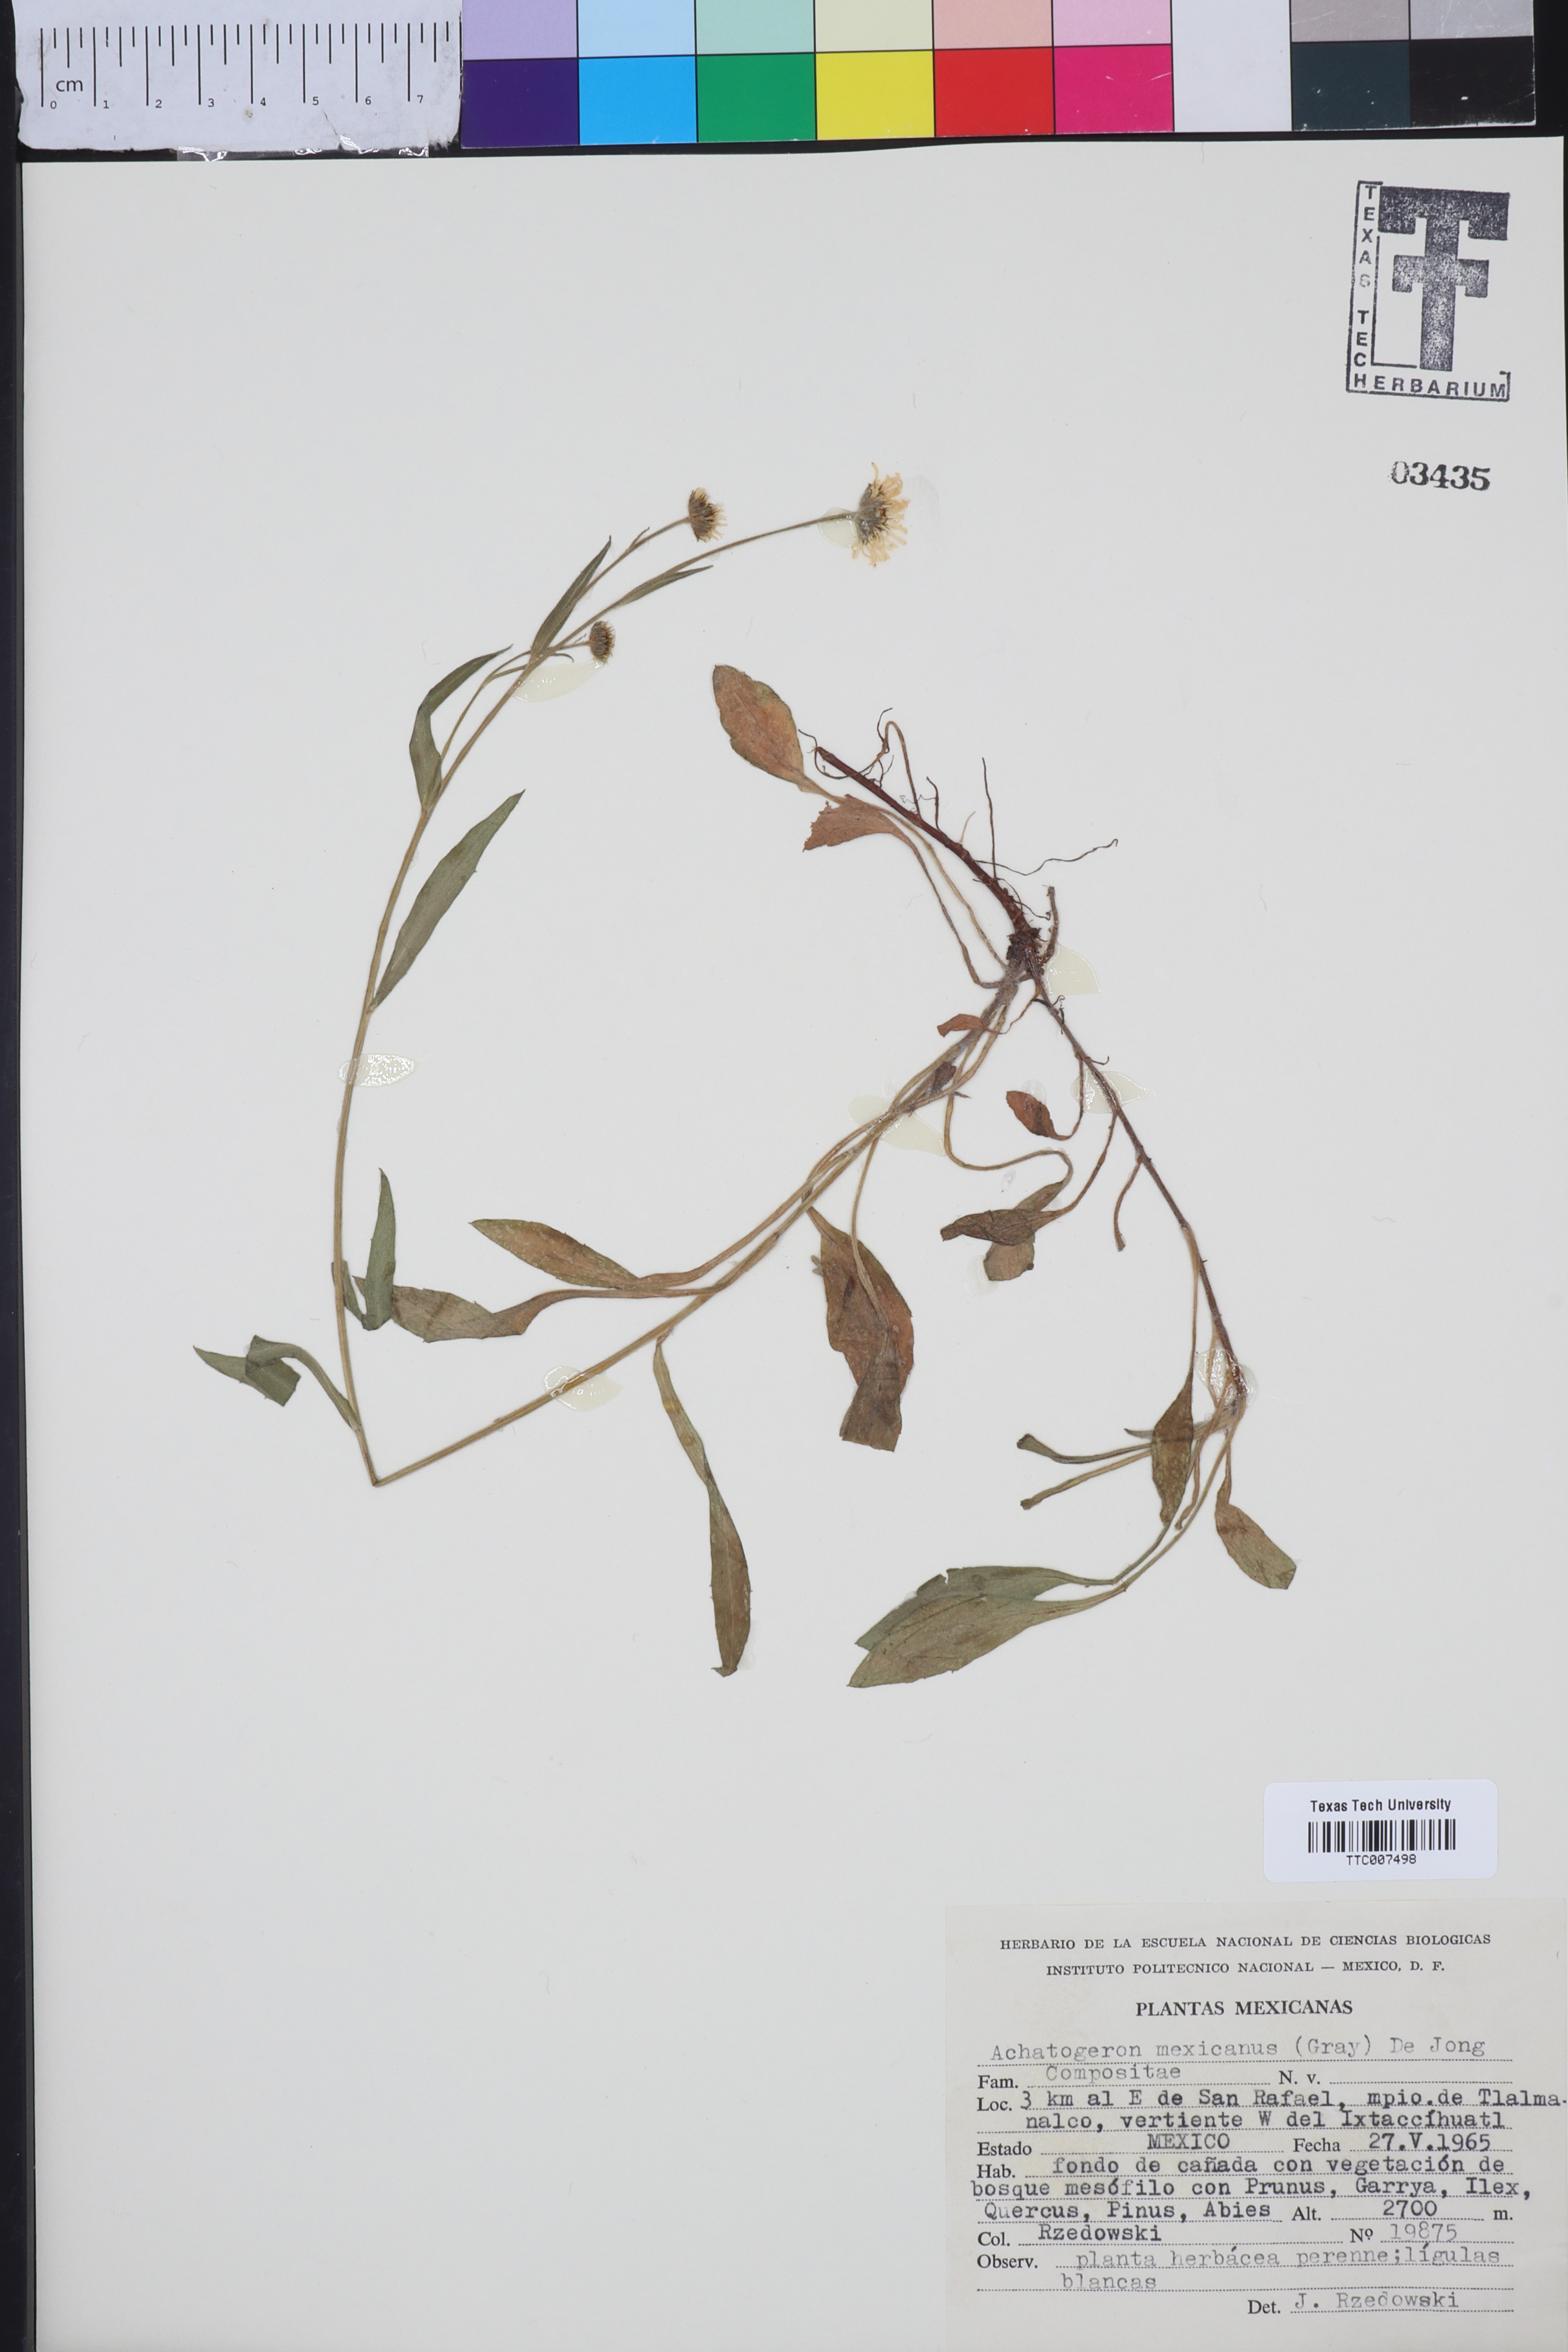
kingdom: Plantae
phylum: Tracheophyta
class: Magnoliopsida
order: Asterales
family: Asteraceae
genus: Erigeron
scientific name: Erigeron galeottii
